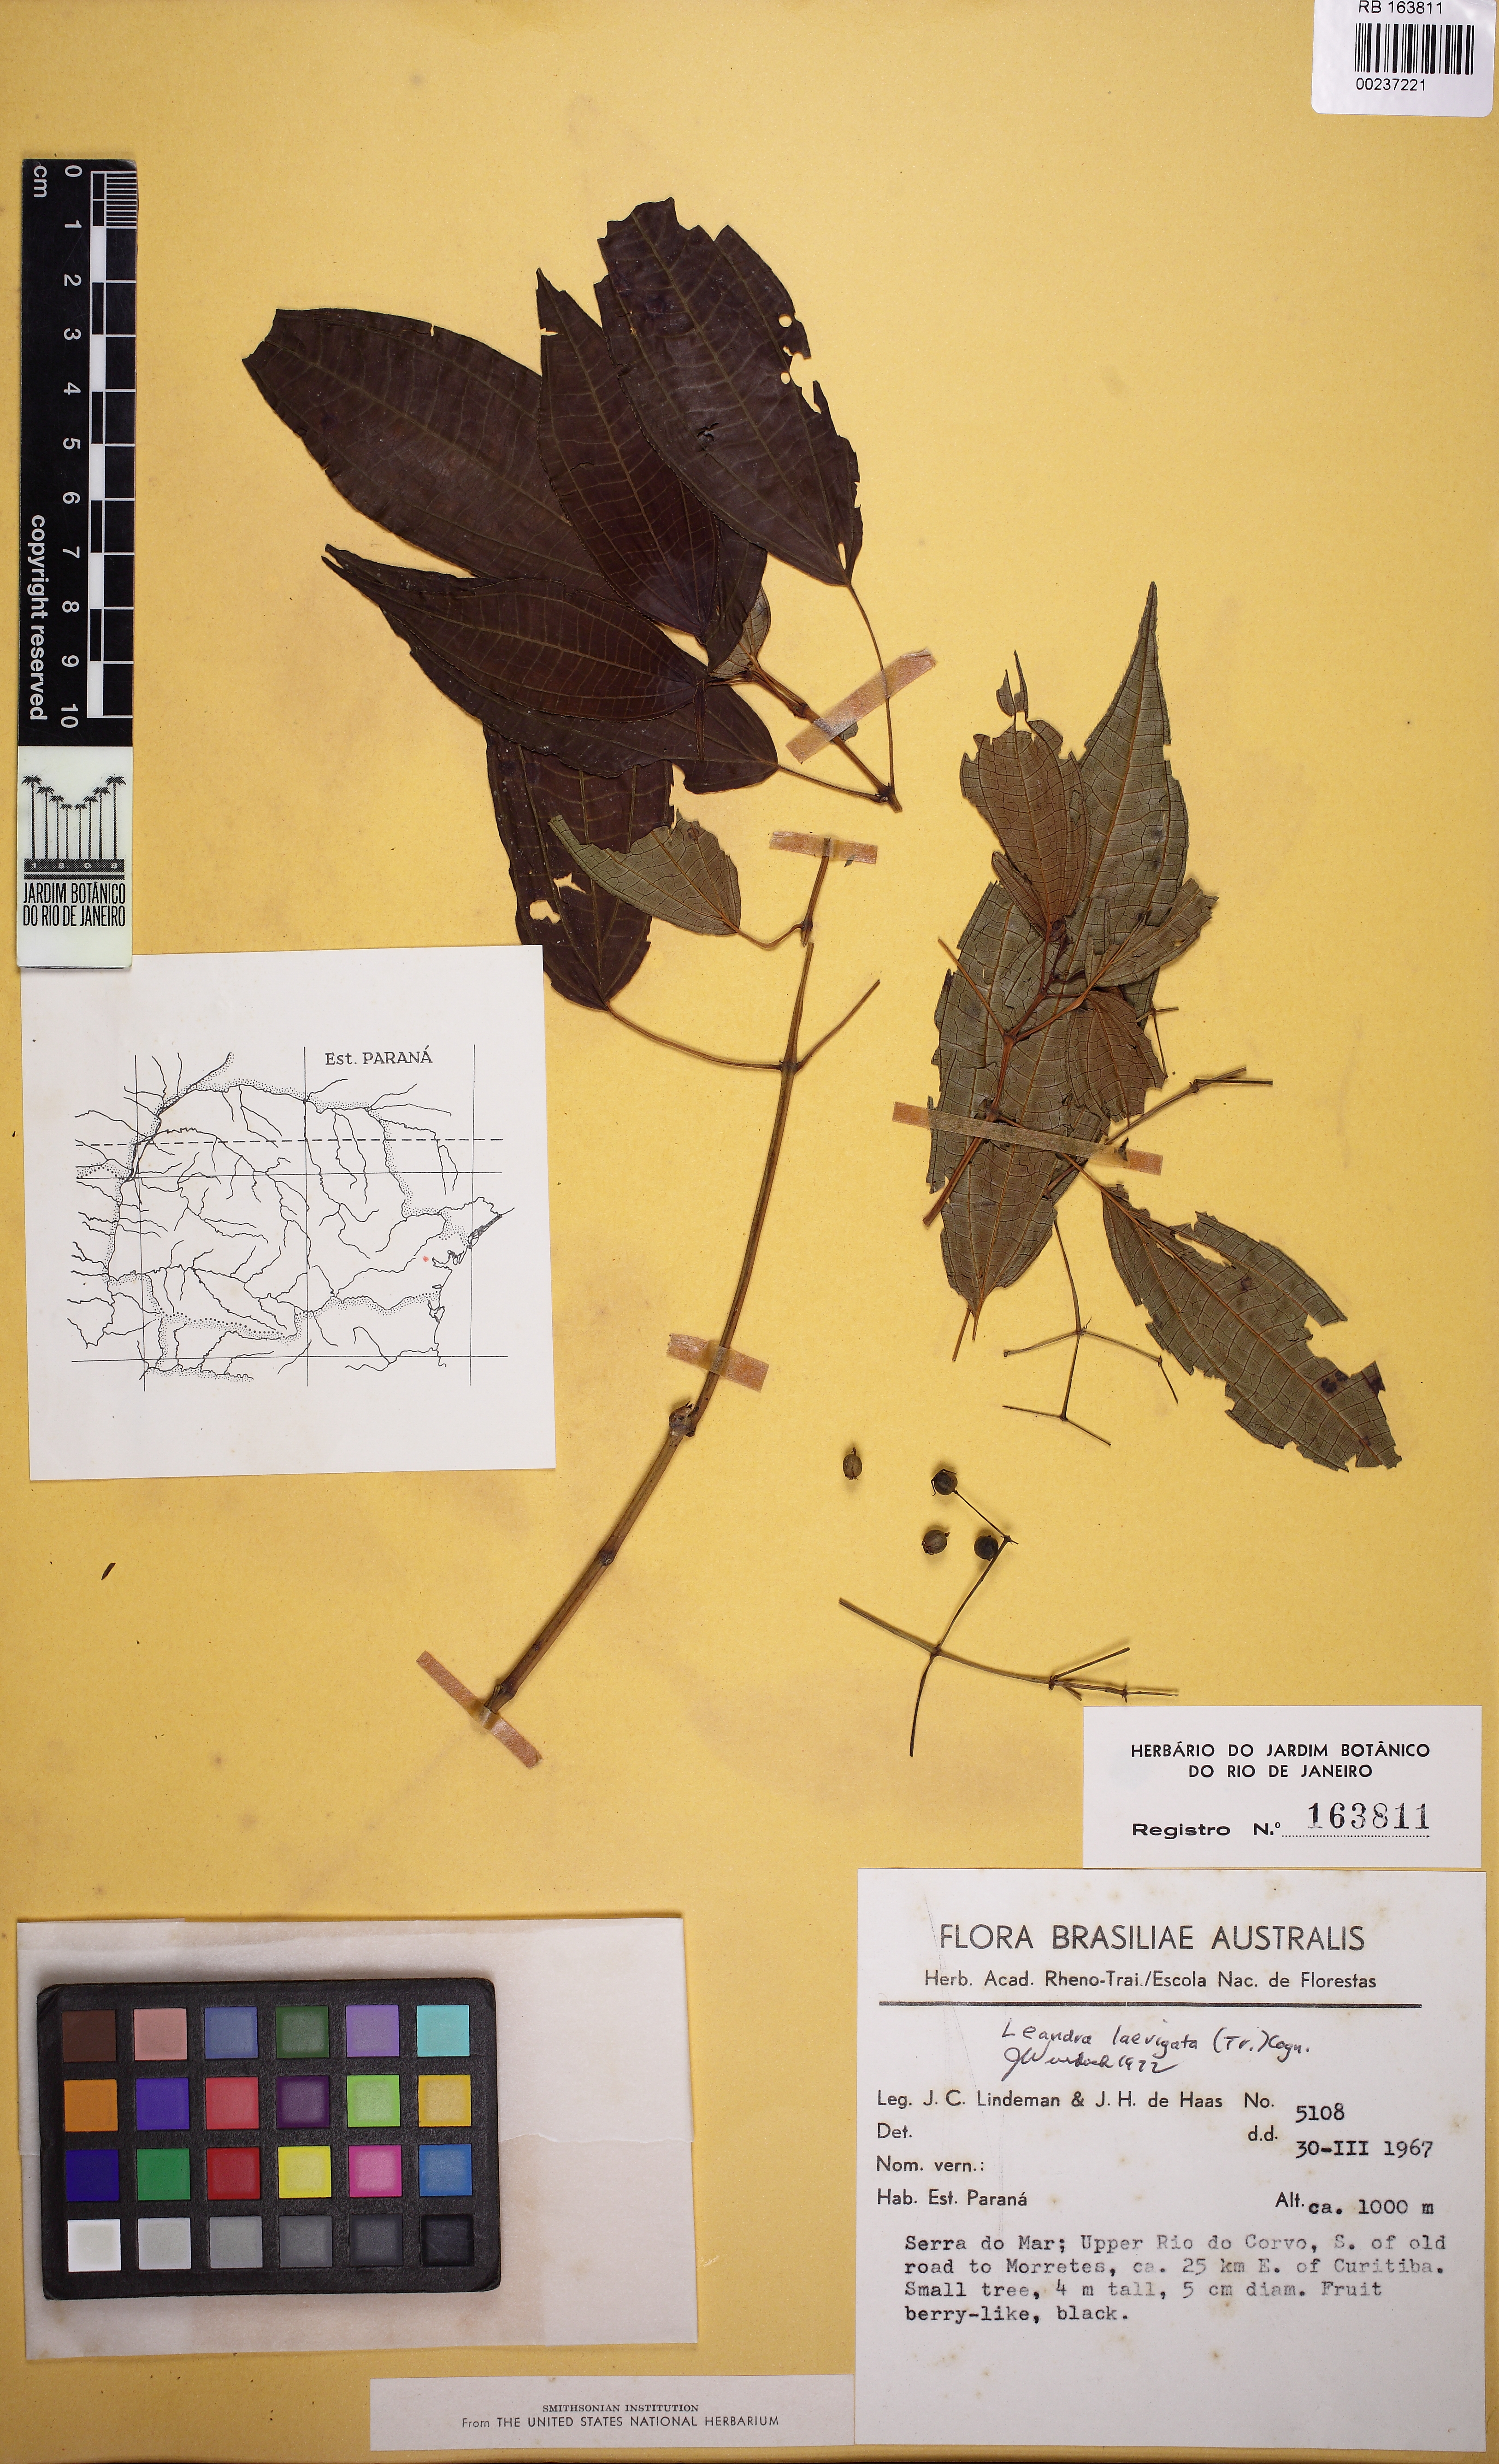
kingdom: Plantae
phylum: Tracheophyta
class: Magnoliopsida
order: Myrtales
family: Melastomataceae
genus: Miconia
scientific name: Miconia ciliolata
